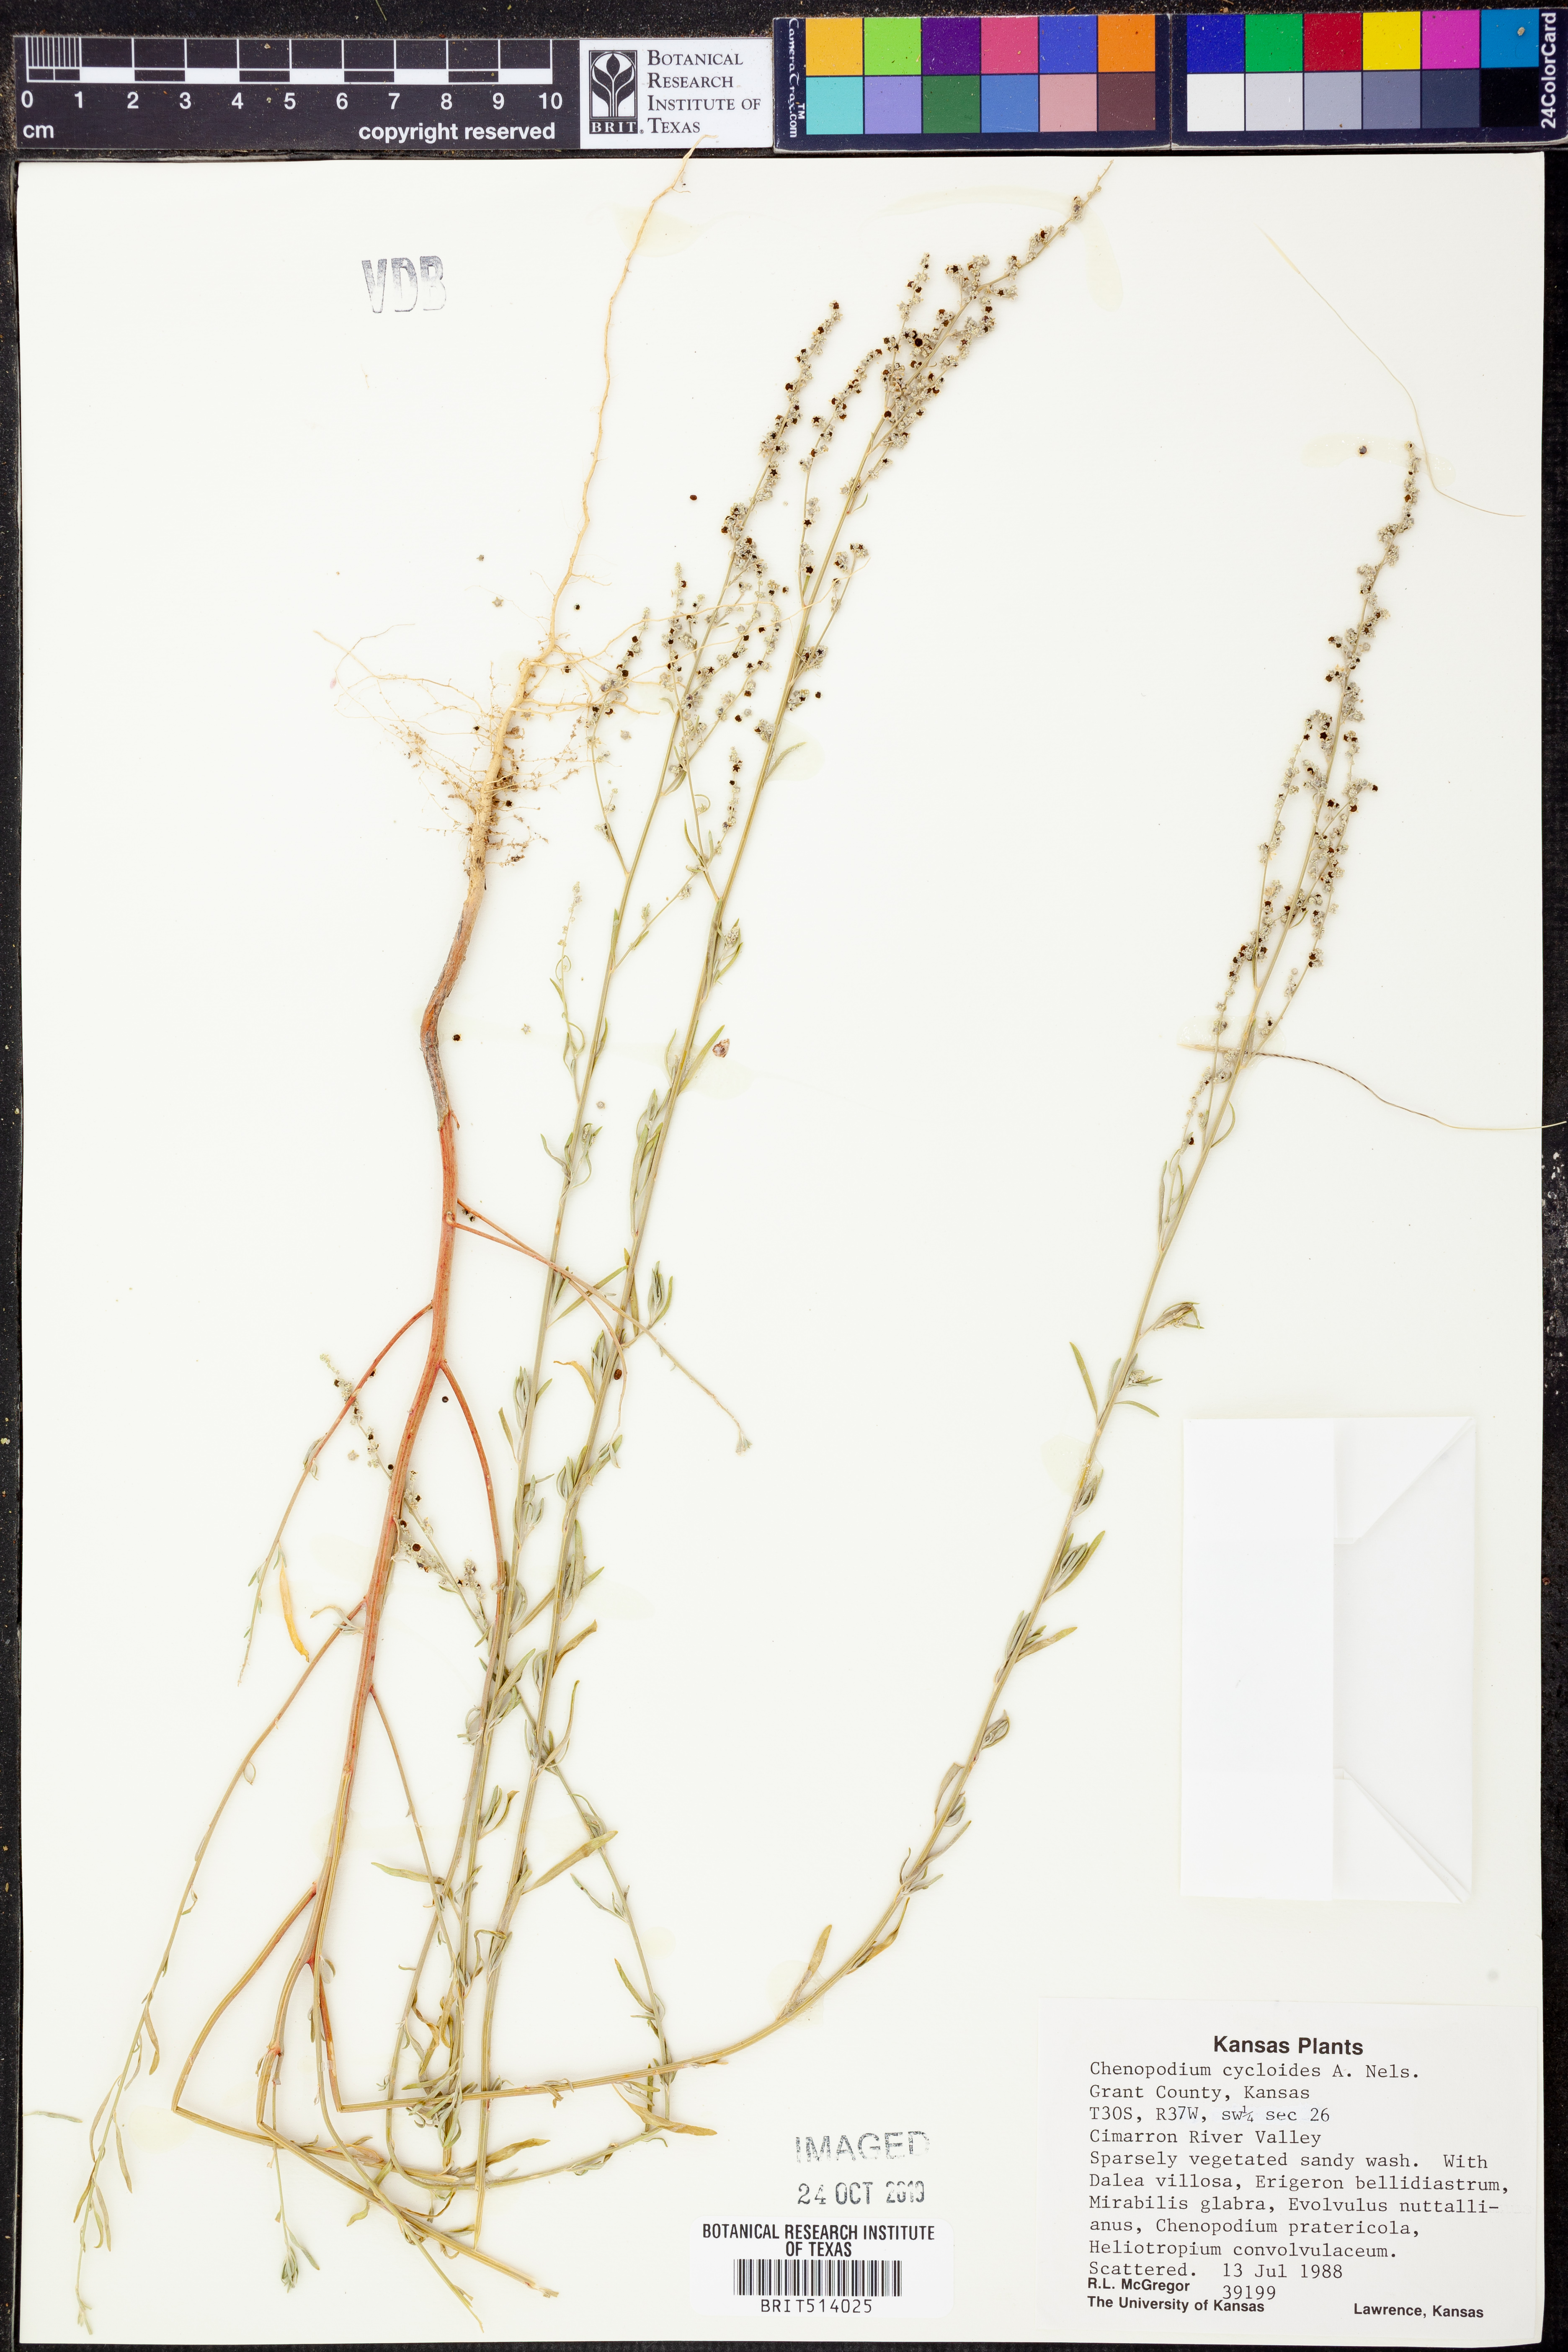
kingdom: Plantae
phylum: Tracheophyta
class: Magnoliopsida
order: Caryophyllales
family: Amaranthaceae
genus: Chenopodium
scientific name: Chenopodium cycloides
